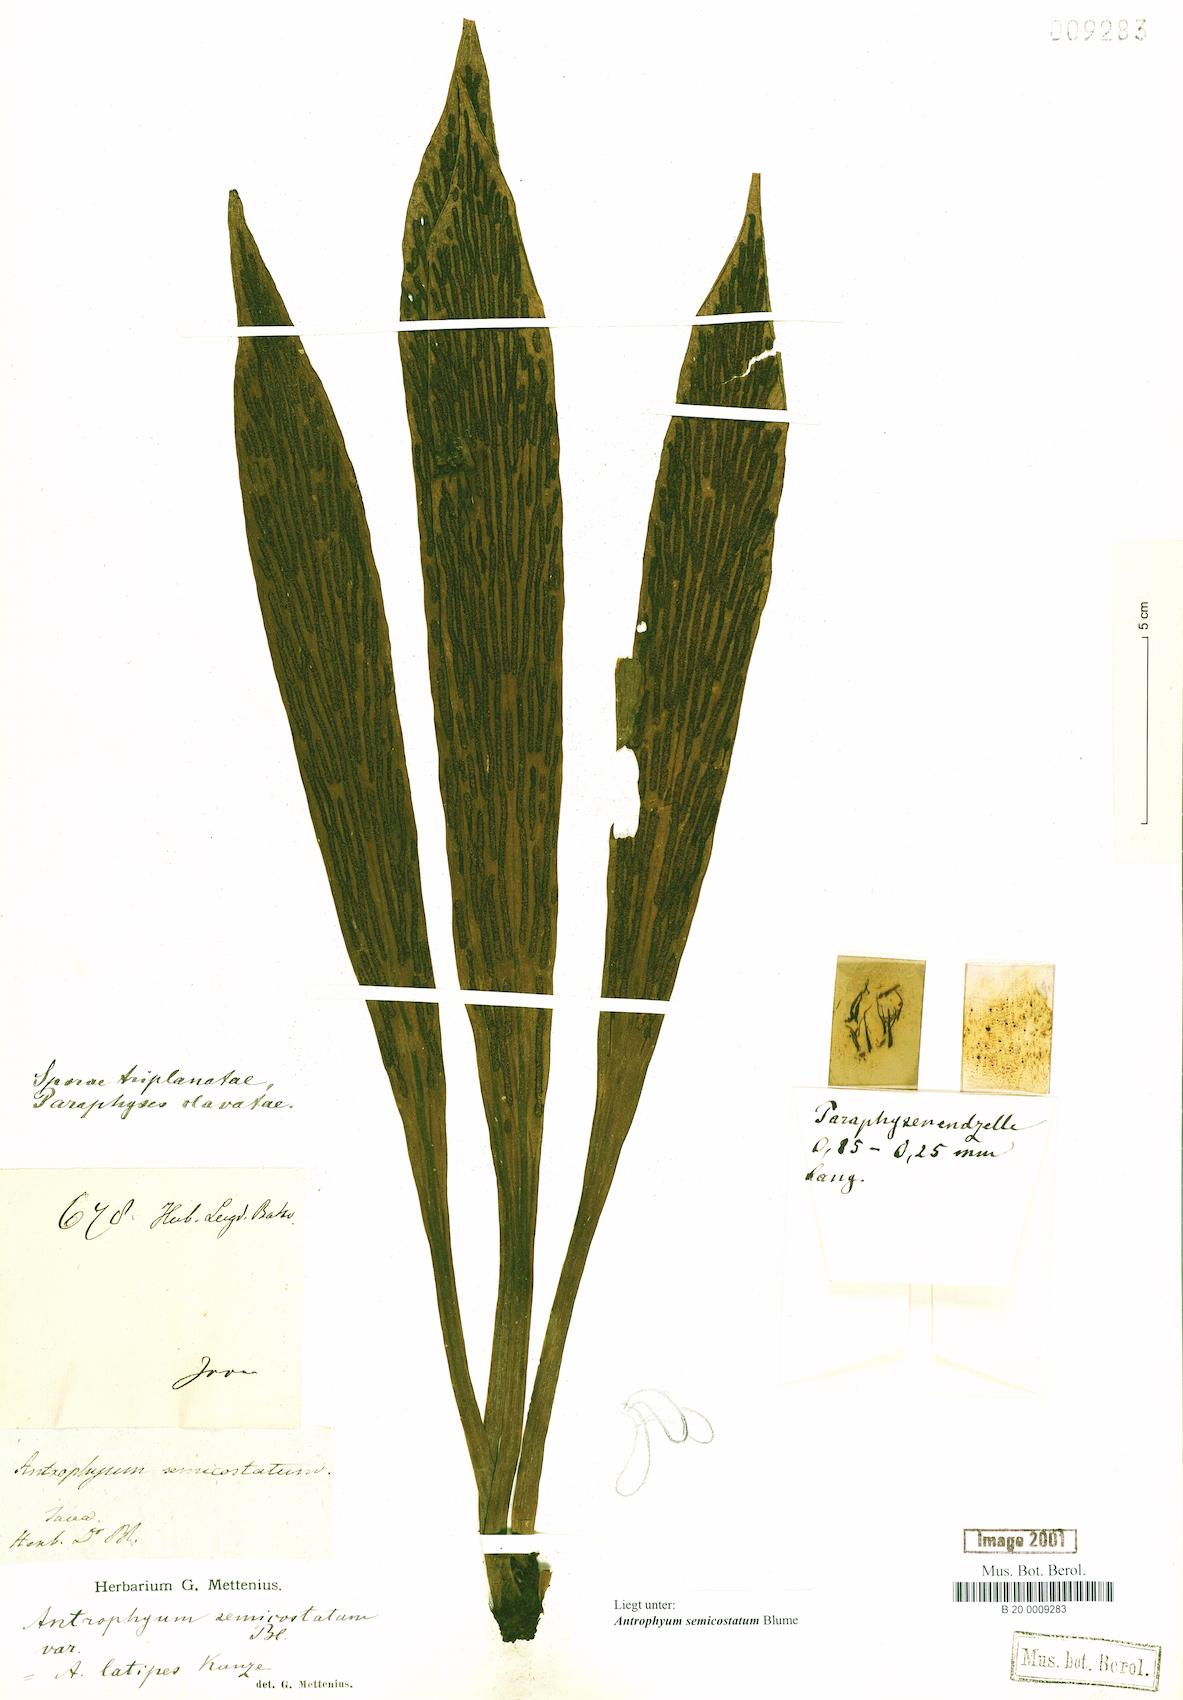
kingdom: Plantae
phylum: Tracheophyta
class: Polypodiopsida
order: Polypodiales
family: Pteridaceae
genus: Antrophyum
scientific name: Antrophyum semicostatum
